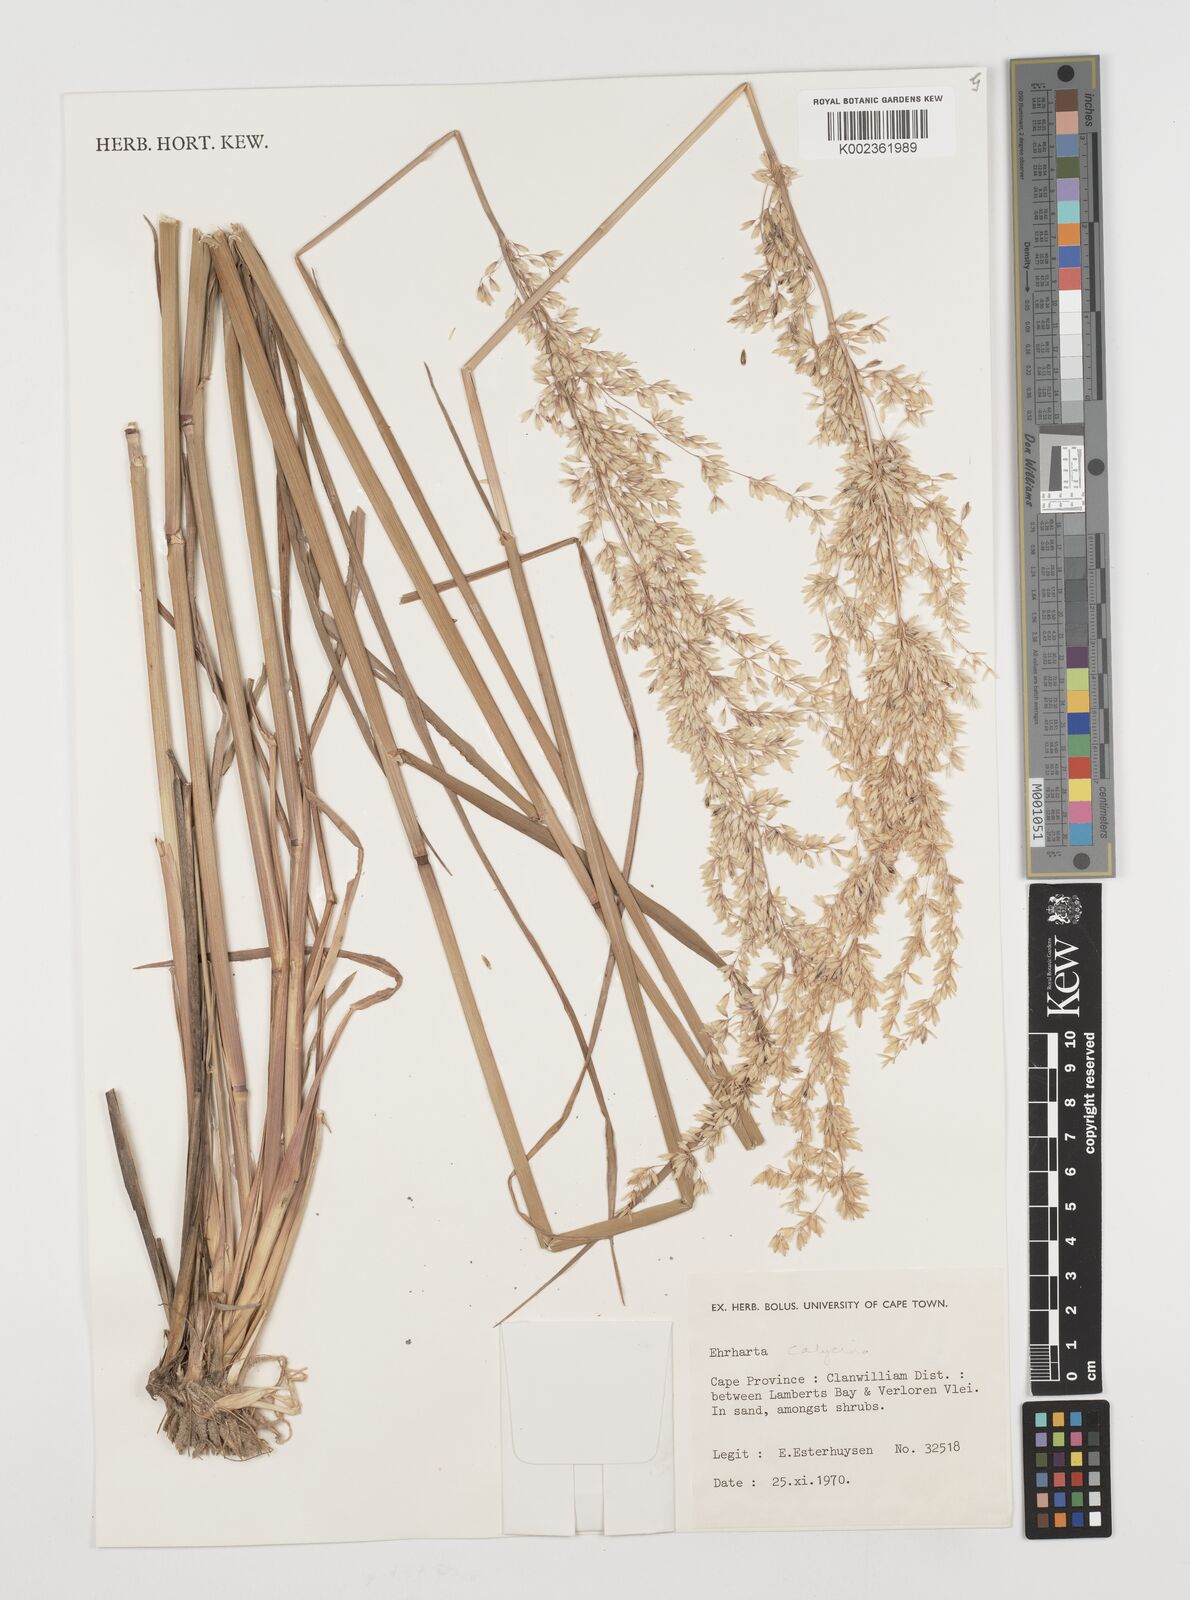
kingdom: Plantae
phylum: Tracheophyta
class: Liliopsida
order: Poales
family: Poaceae
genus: Ehrharta
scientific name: Ehrharta calycina
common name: Perennial veldtgrass
